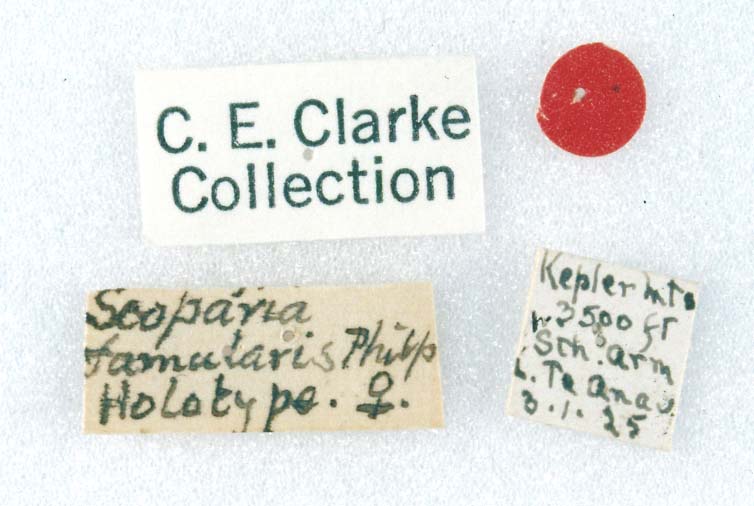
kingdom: Animalia
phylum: Arthropoda
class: Insecta
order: Lepidoptera
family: Crambidae
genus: Scoparia
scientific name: Scoparia famularis
